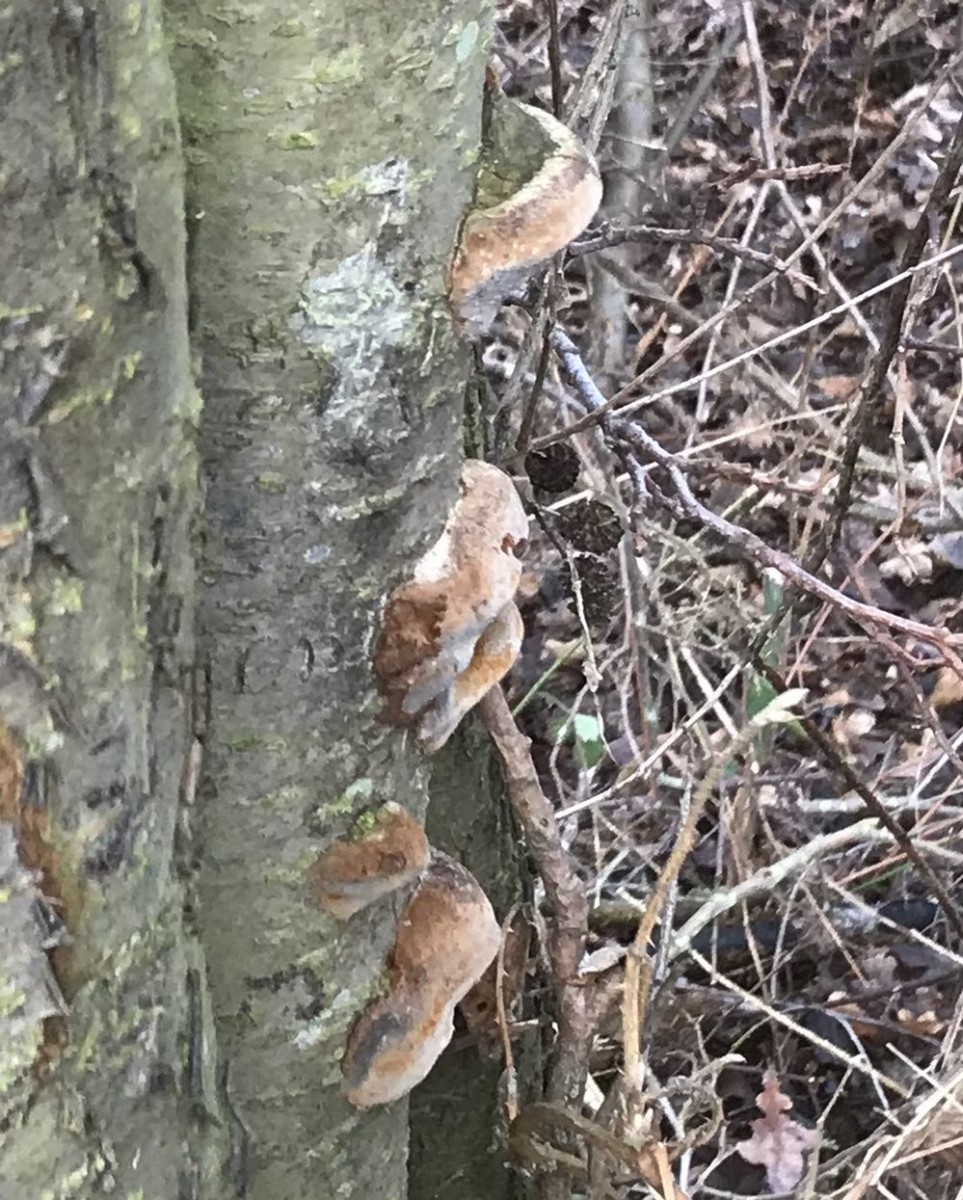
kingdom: Fungi
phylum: Basidiomycota
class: Agaricomycetes
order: Hymenochaetales
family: Hymenochaetaceae
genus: Phellinus
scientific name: Phellinus pomaceus
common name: blomme-ildporesvamp
